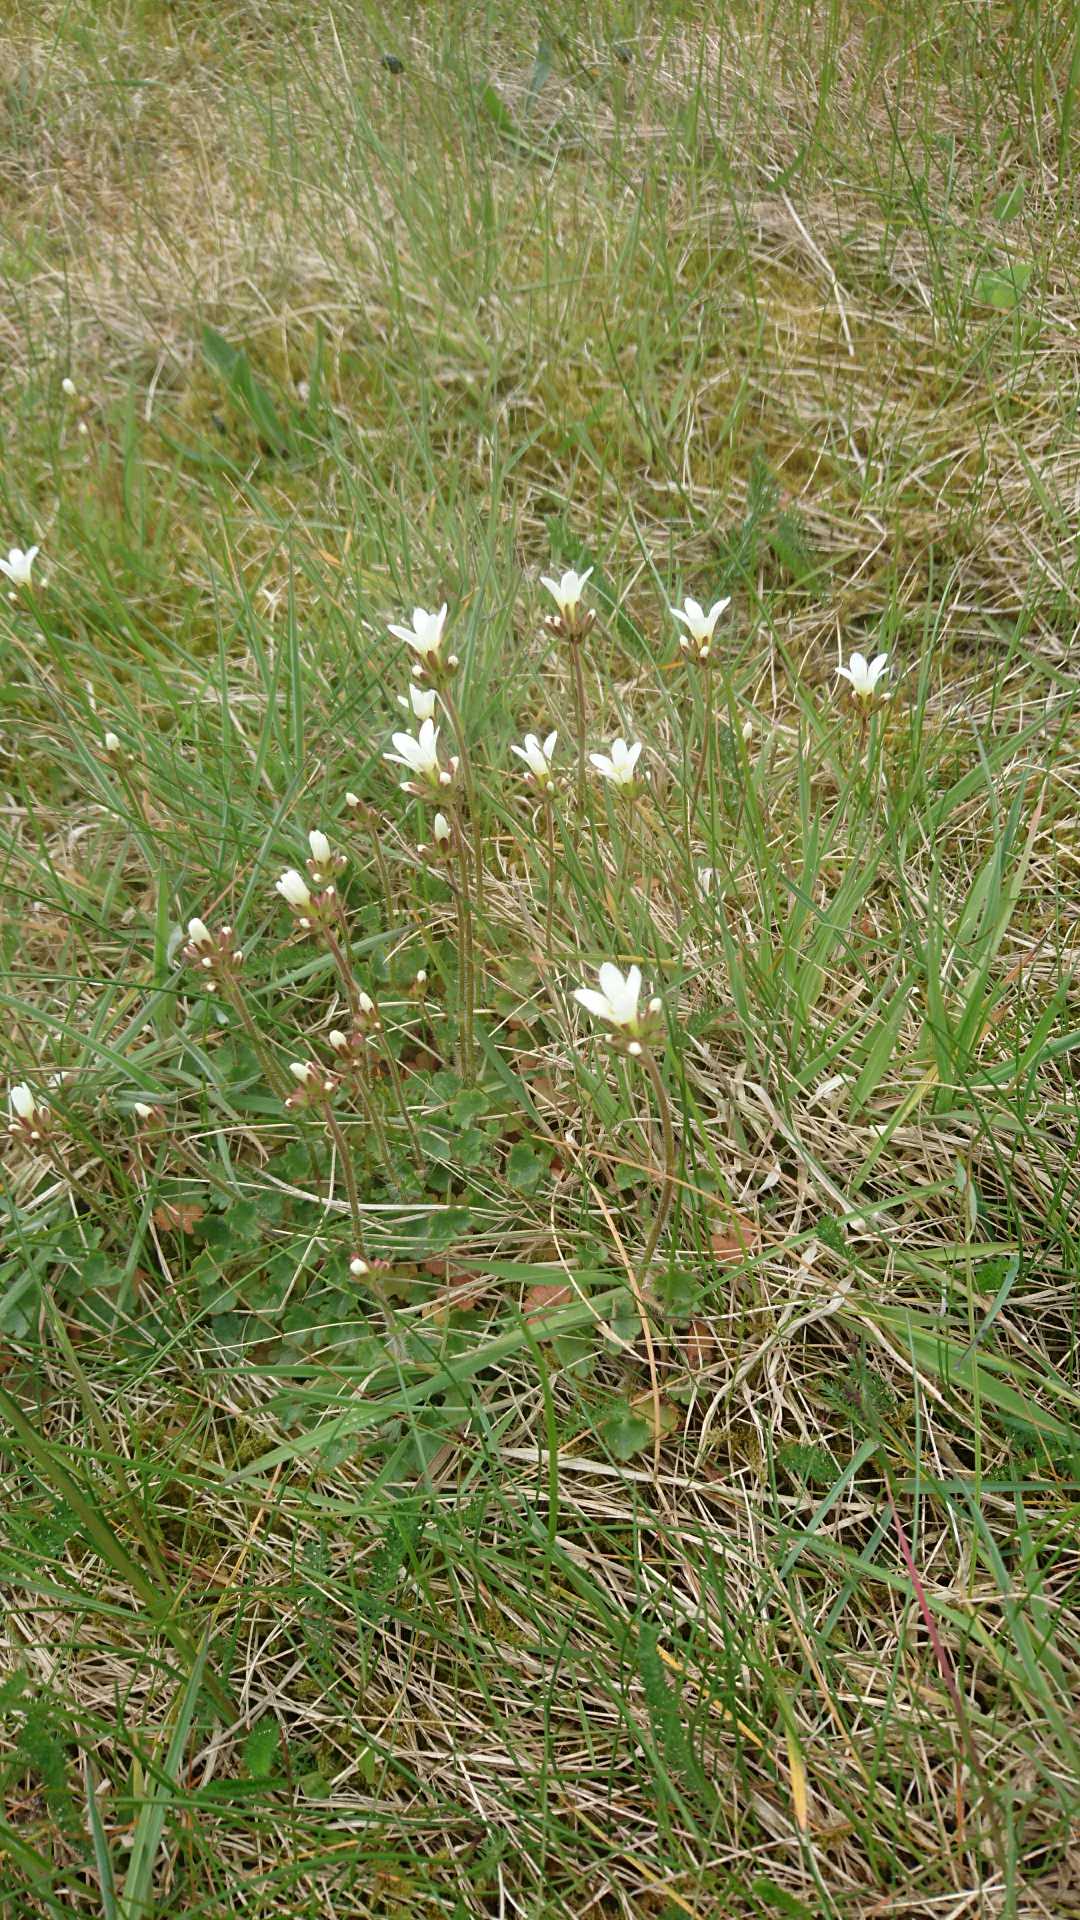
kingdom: Plantae
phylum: Tracheophyta
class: Magnoliopsida
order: Saxifragales
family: Saxifragaceae
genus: Saxifraga
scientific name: Saxifraga granulata
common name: Kornet stenbræk
